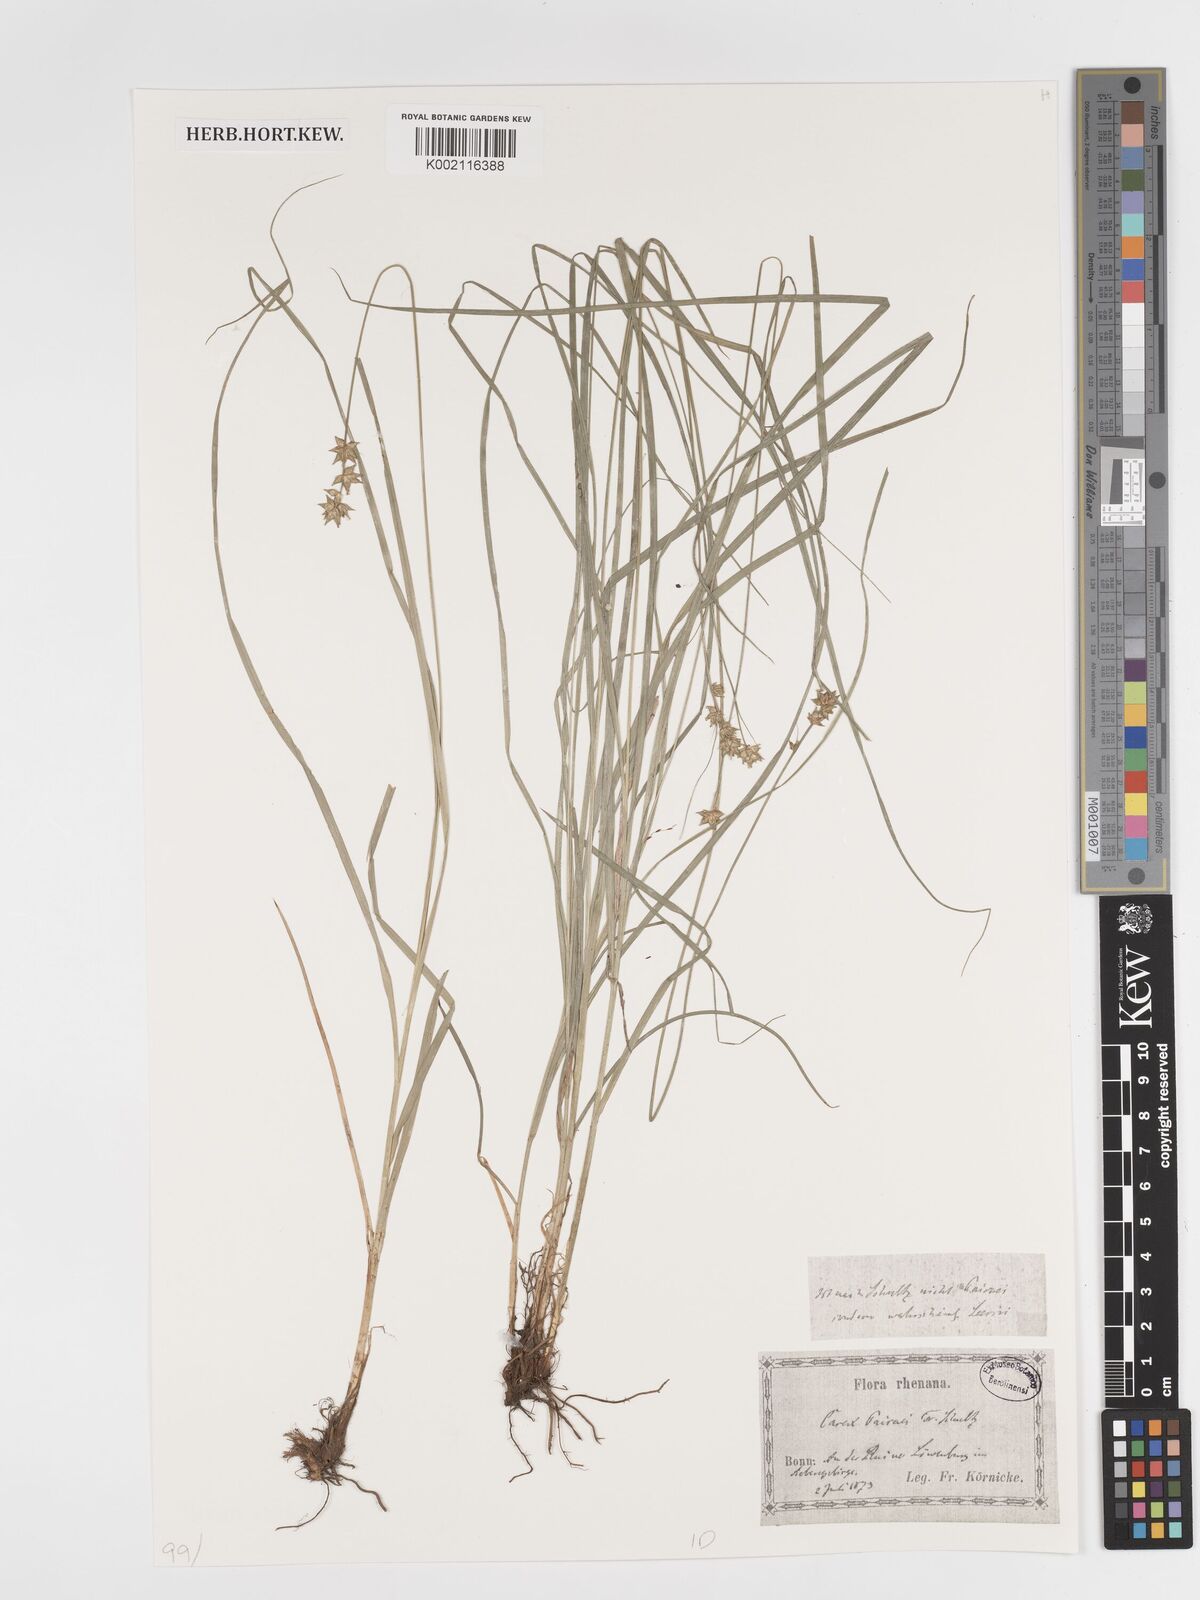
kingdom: Plantae
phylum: Tracheophyta
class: Liliopsida
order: Poales
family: Cyperaceae
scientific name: Cyperaceae
